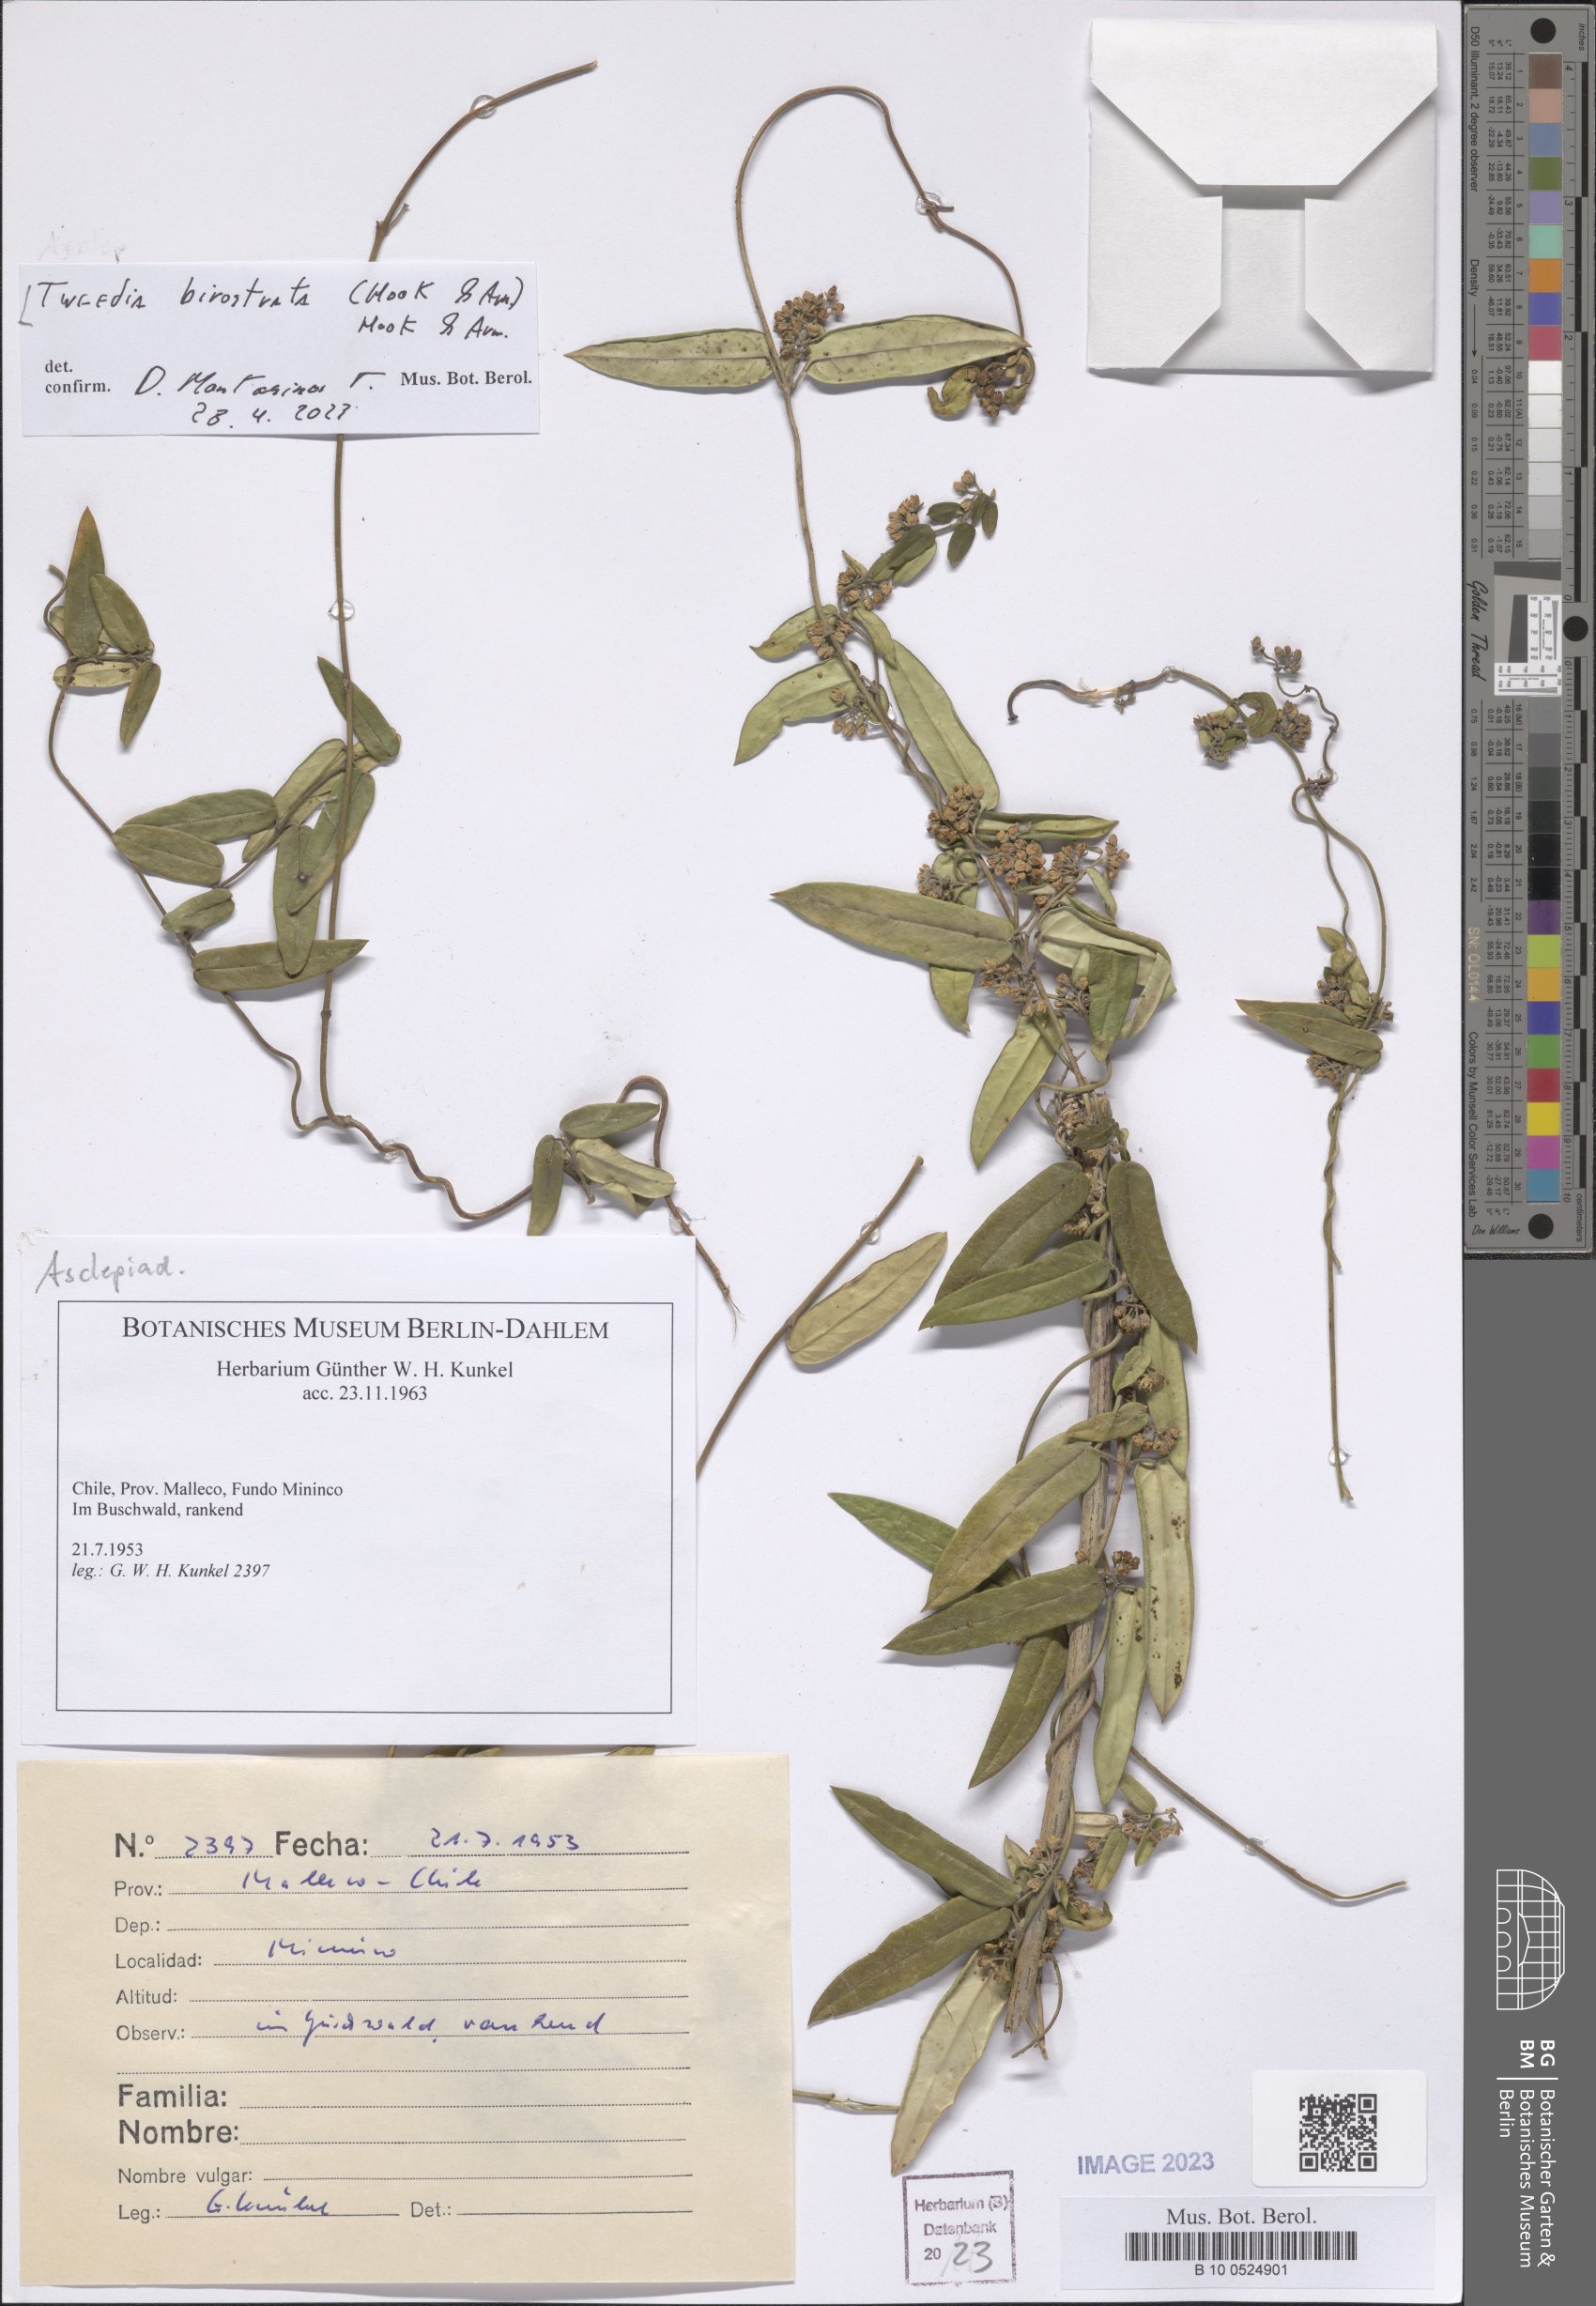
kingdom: Plantae
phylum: Tracheophyta
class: Magnoliopsida
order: Gentianales
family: Apocynaceae
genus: Tweedia
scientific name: Tweedia birostrata
